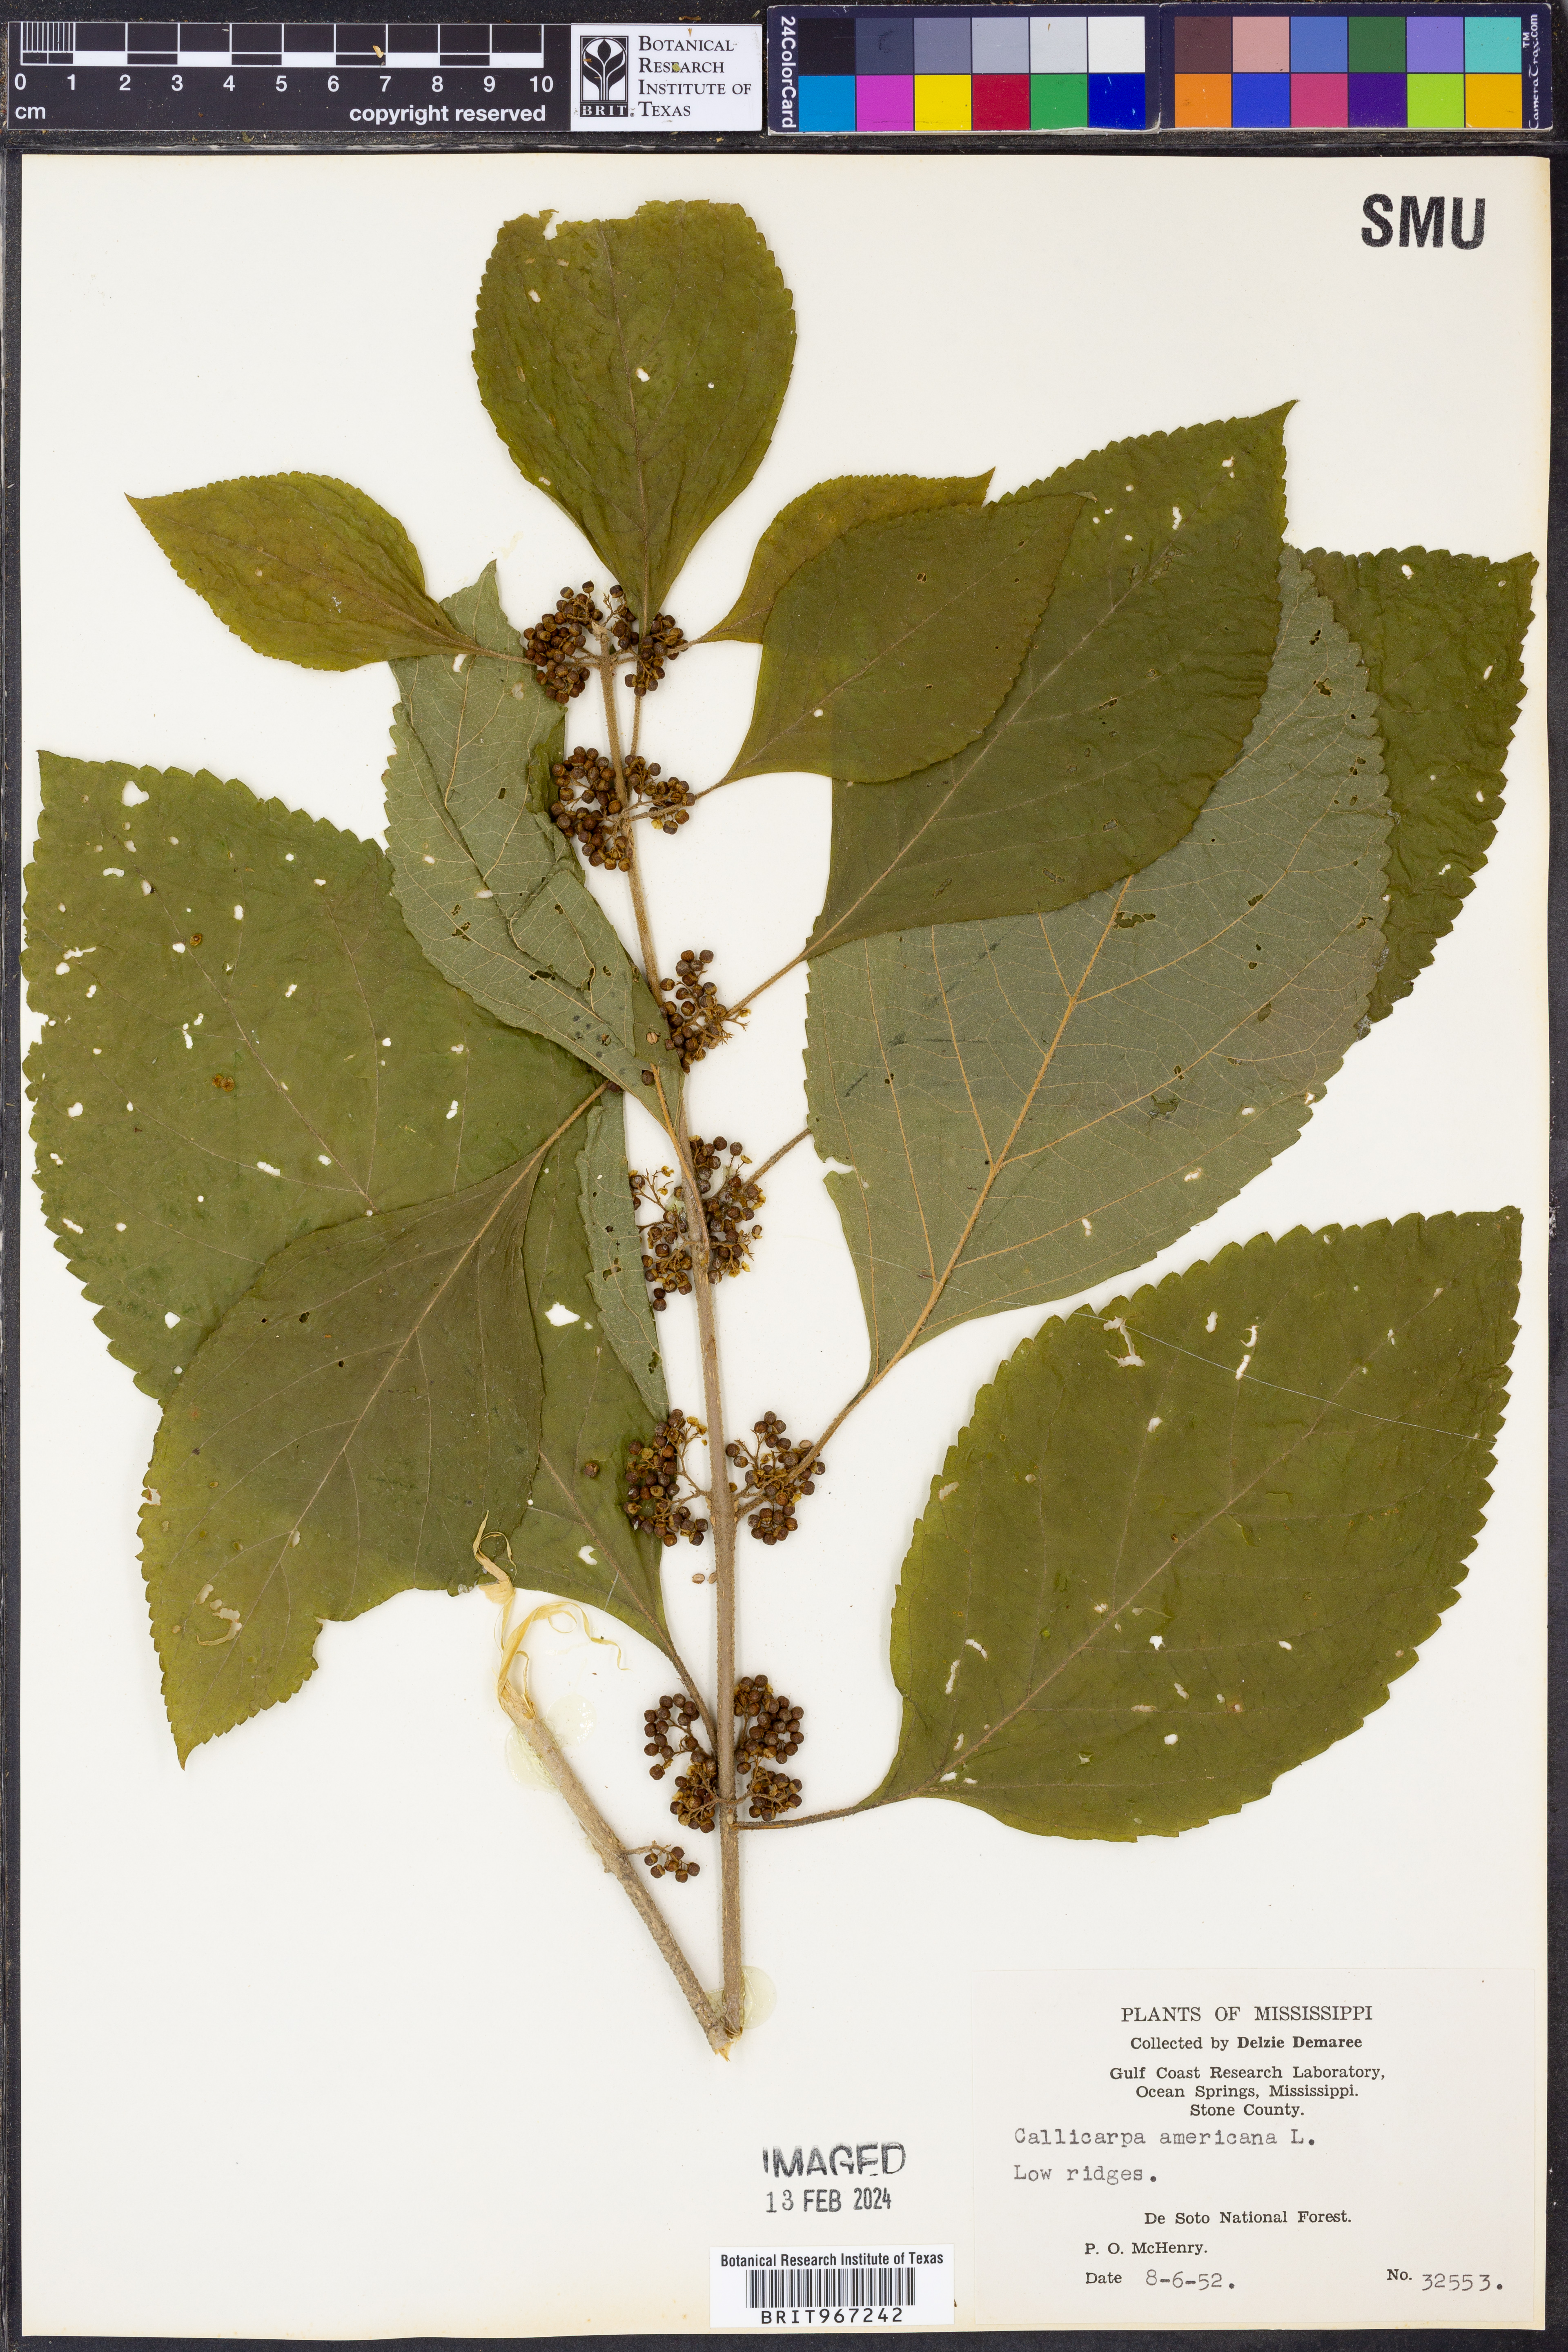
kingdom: Plantae
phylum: Tracheophyta
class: Magnoliopsida
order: Lamiales
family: Lamiaceae
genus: Callicarpa
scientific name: Callicarpa americana
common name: American beautyberry
